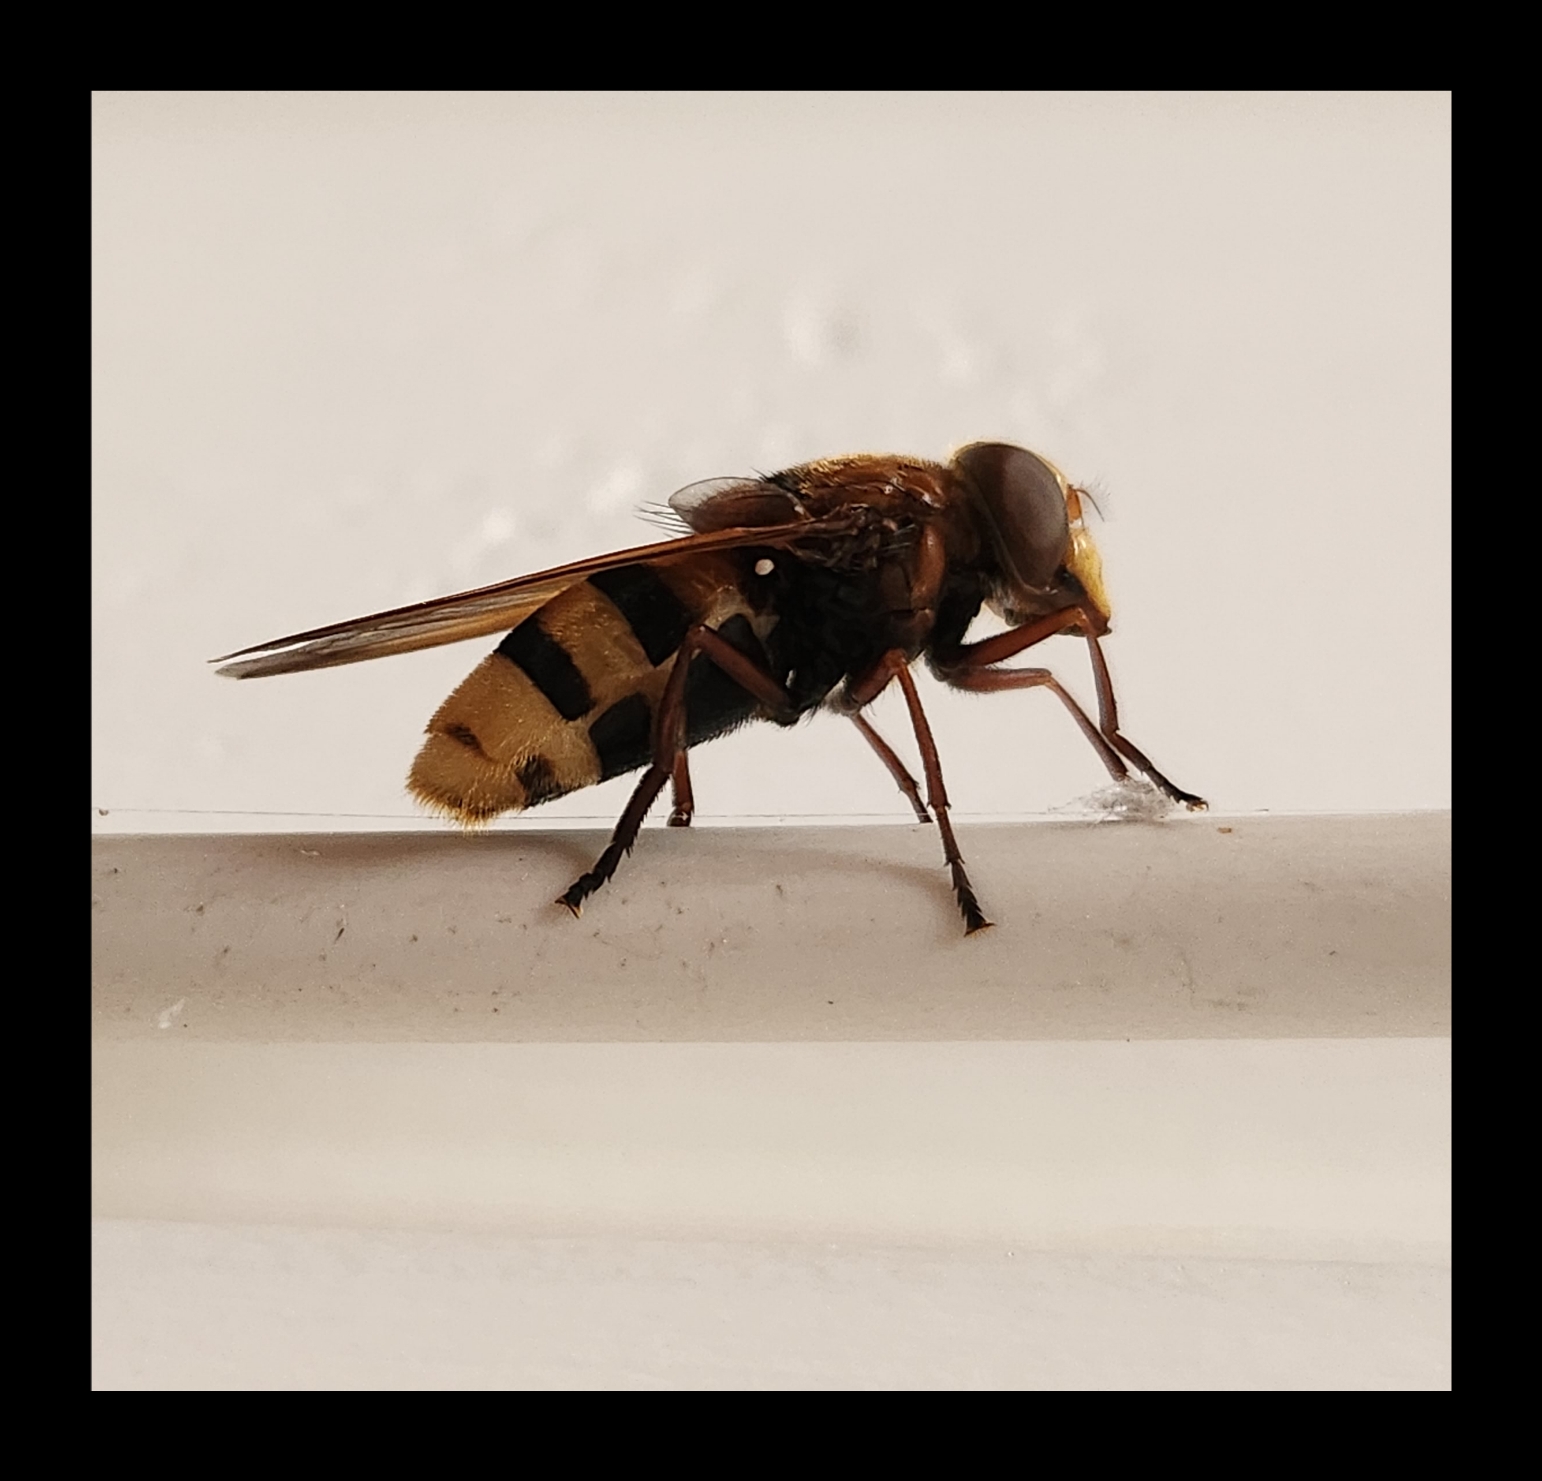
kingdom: Animalia
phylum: Arthropoda
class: Insecta
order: Diptera
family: Syrphidae
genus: Volucella
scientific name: Volucella zonaria
